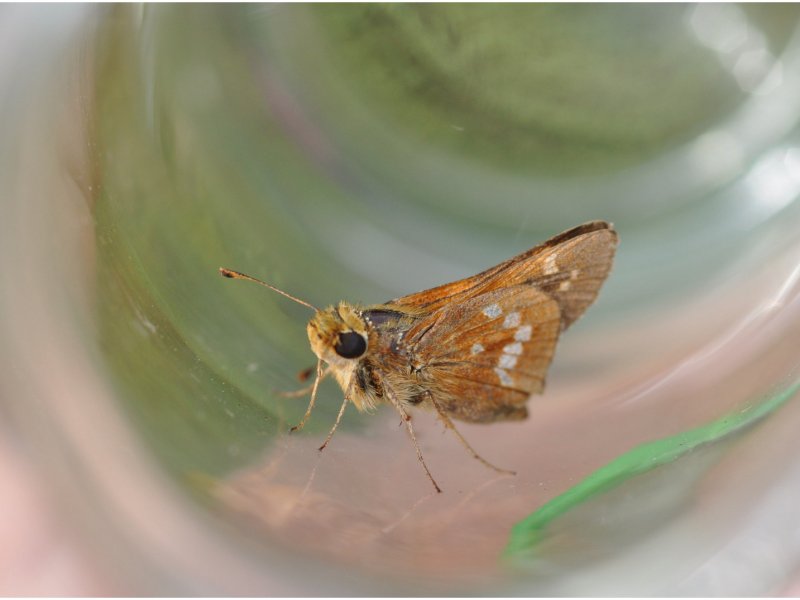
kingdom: Animalia
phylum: Arthropoda
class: Insecta
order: Lepidoptera
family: Hesperiidae
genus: Hesperia
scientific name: Hesperia leonardus
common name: Leonard's Skipper
